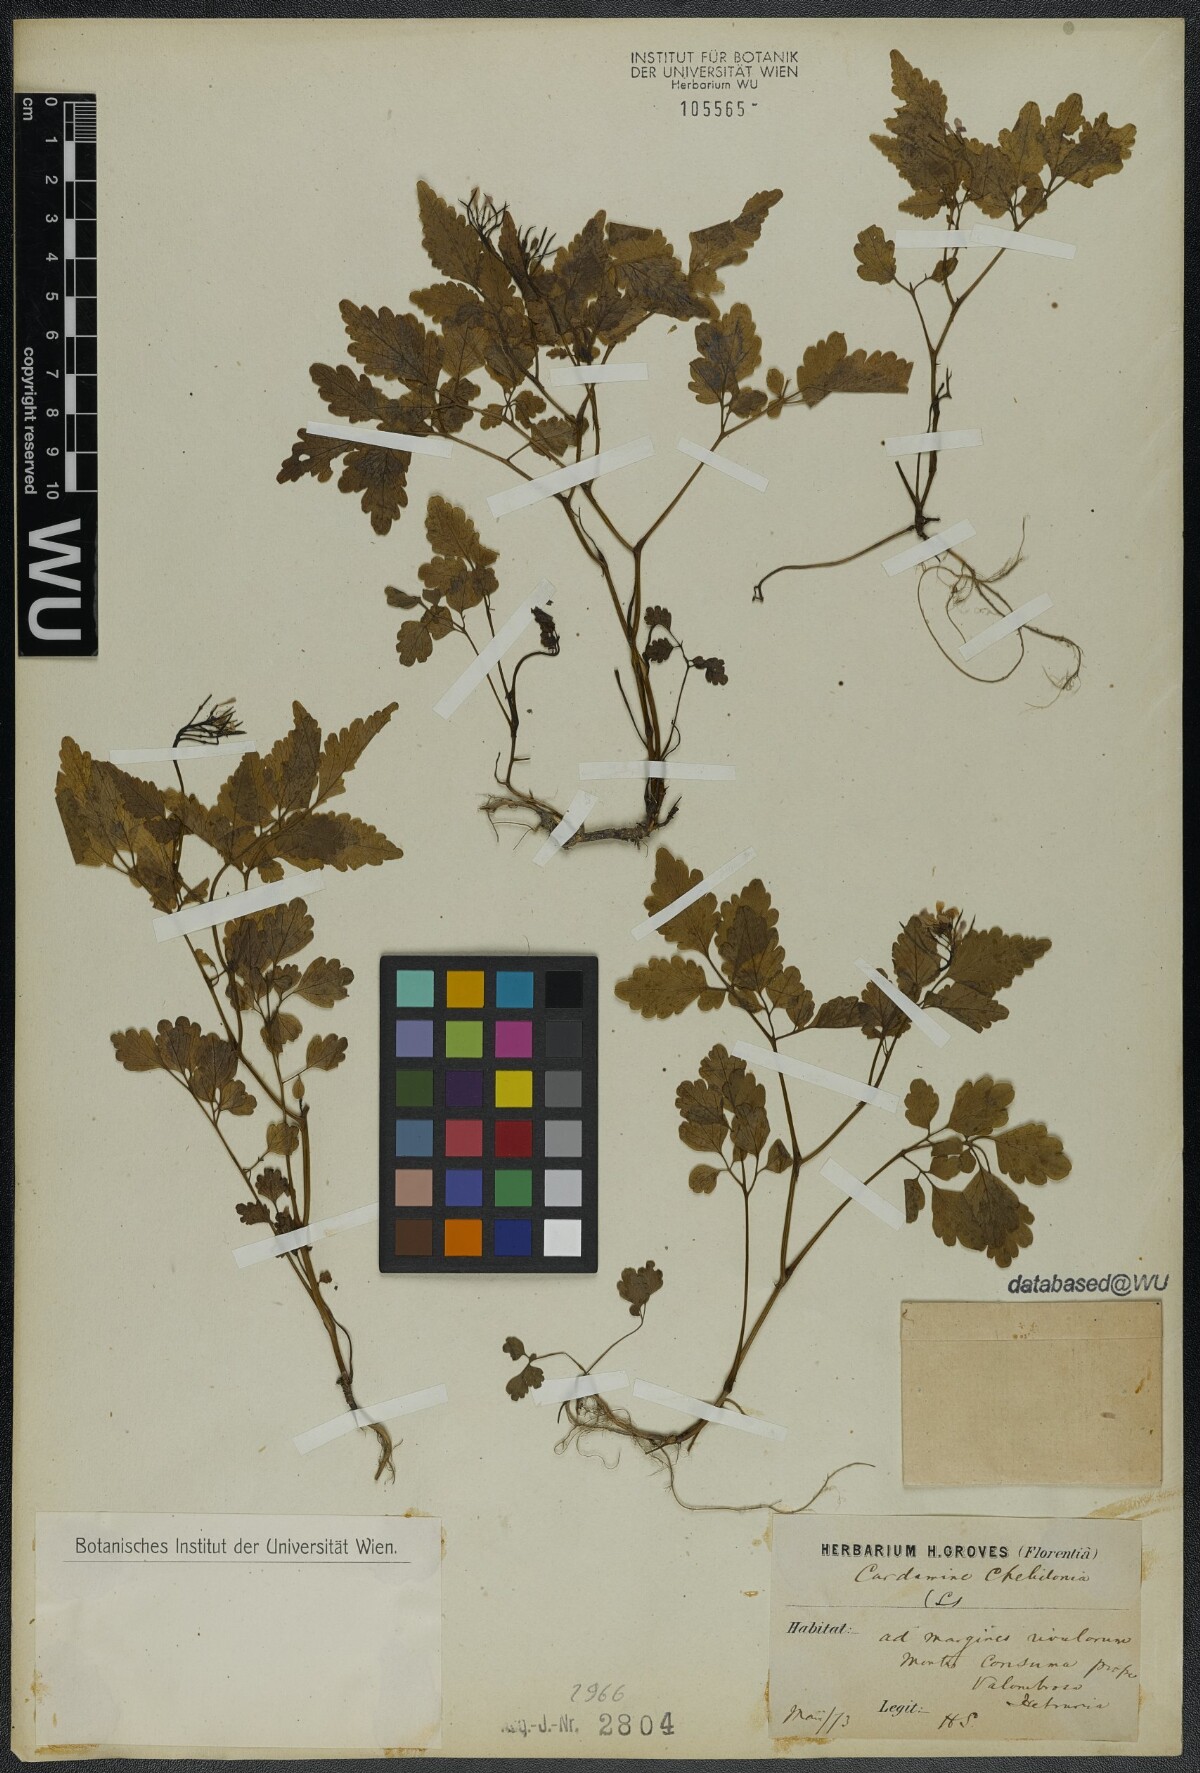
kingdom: Plantae
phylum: Tracheophyta
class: Magnoliopsida
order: Brassicales
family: Brassicaceae
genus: Cardamine
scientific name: Cardamine chelidonia
